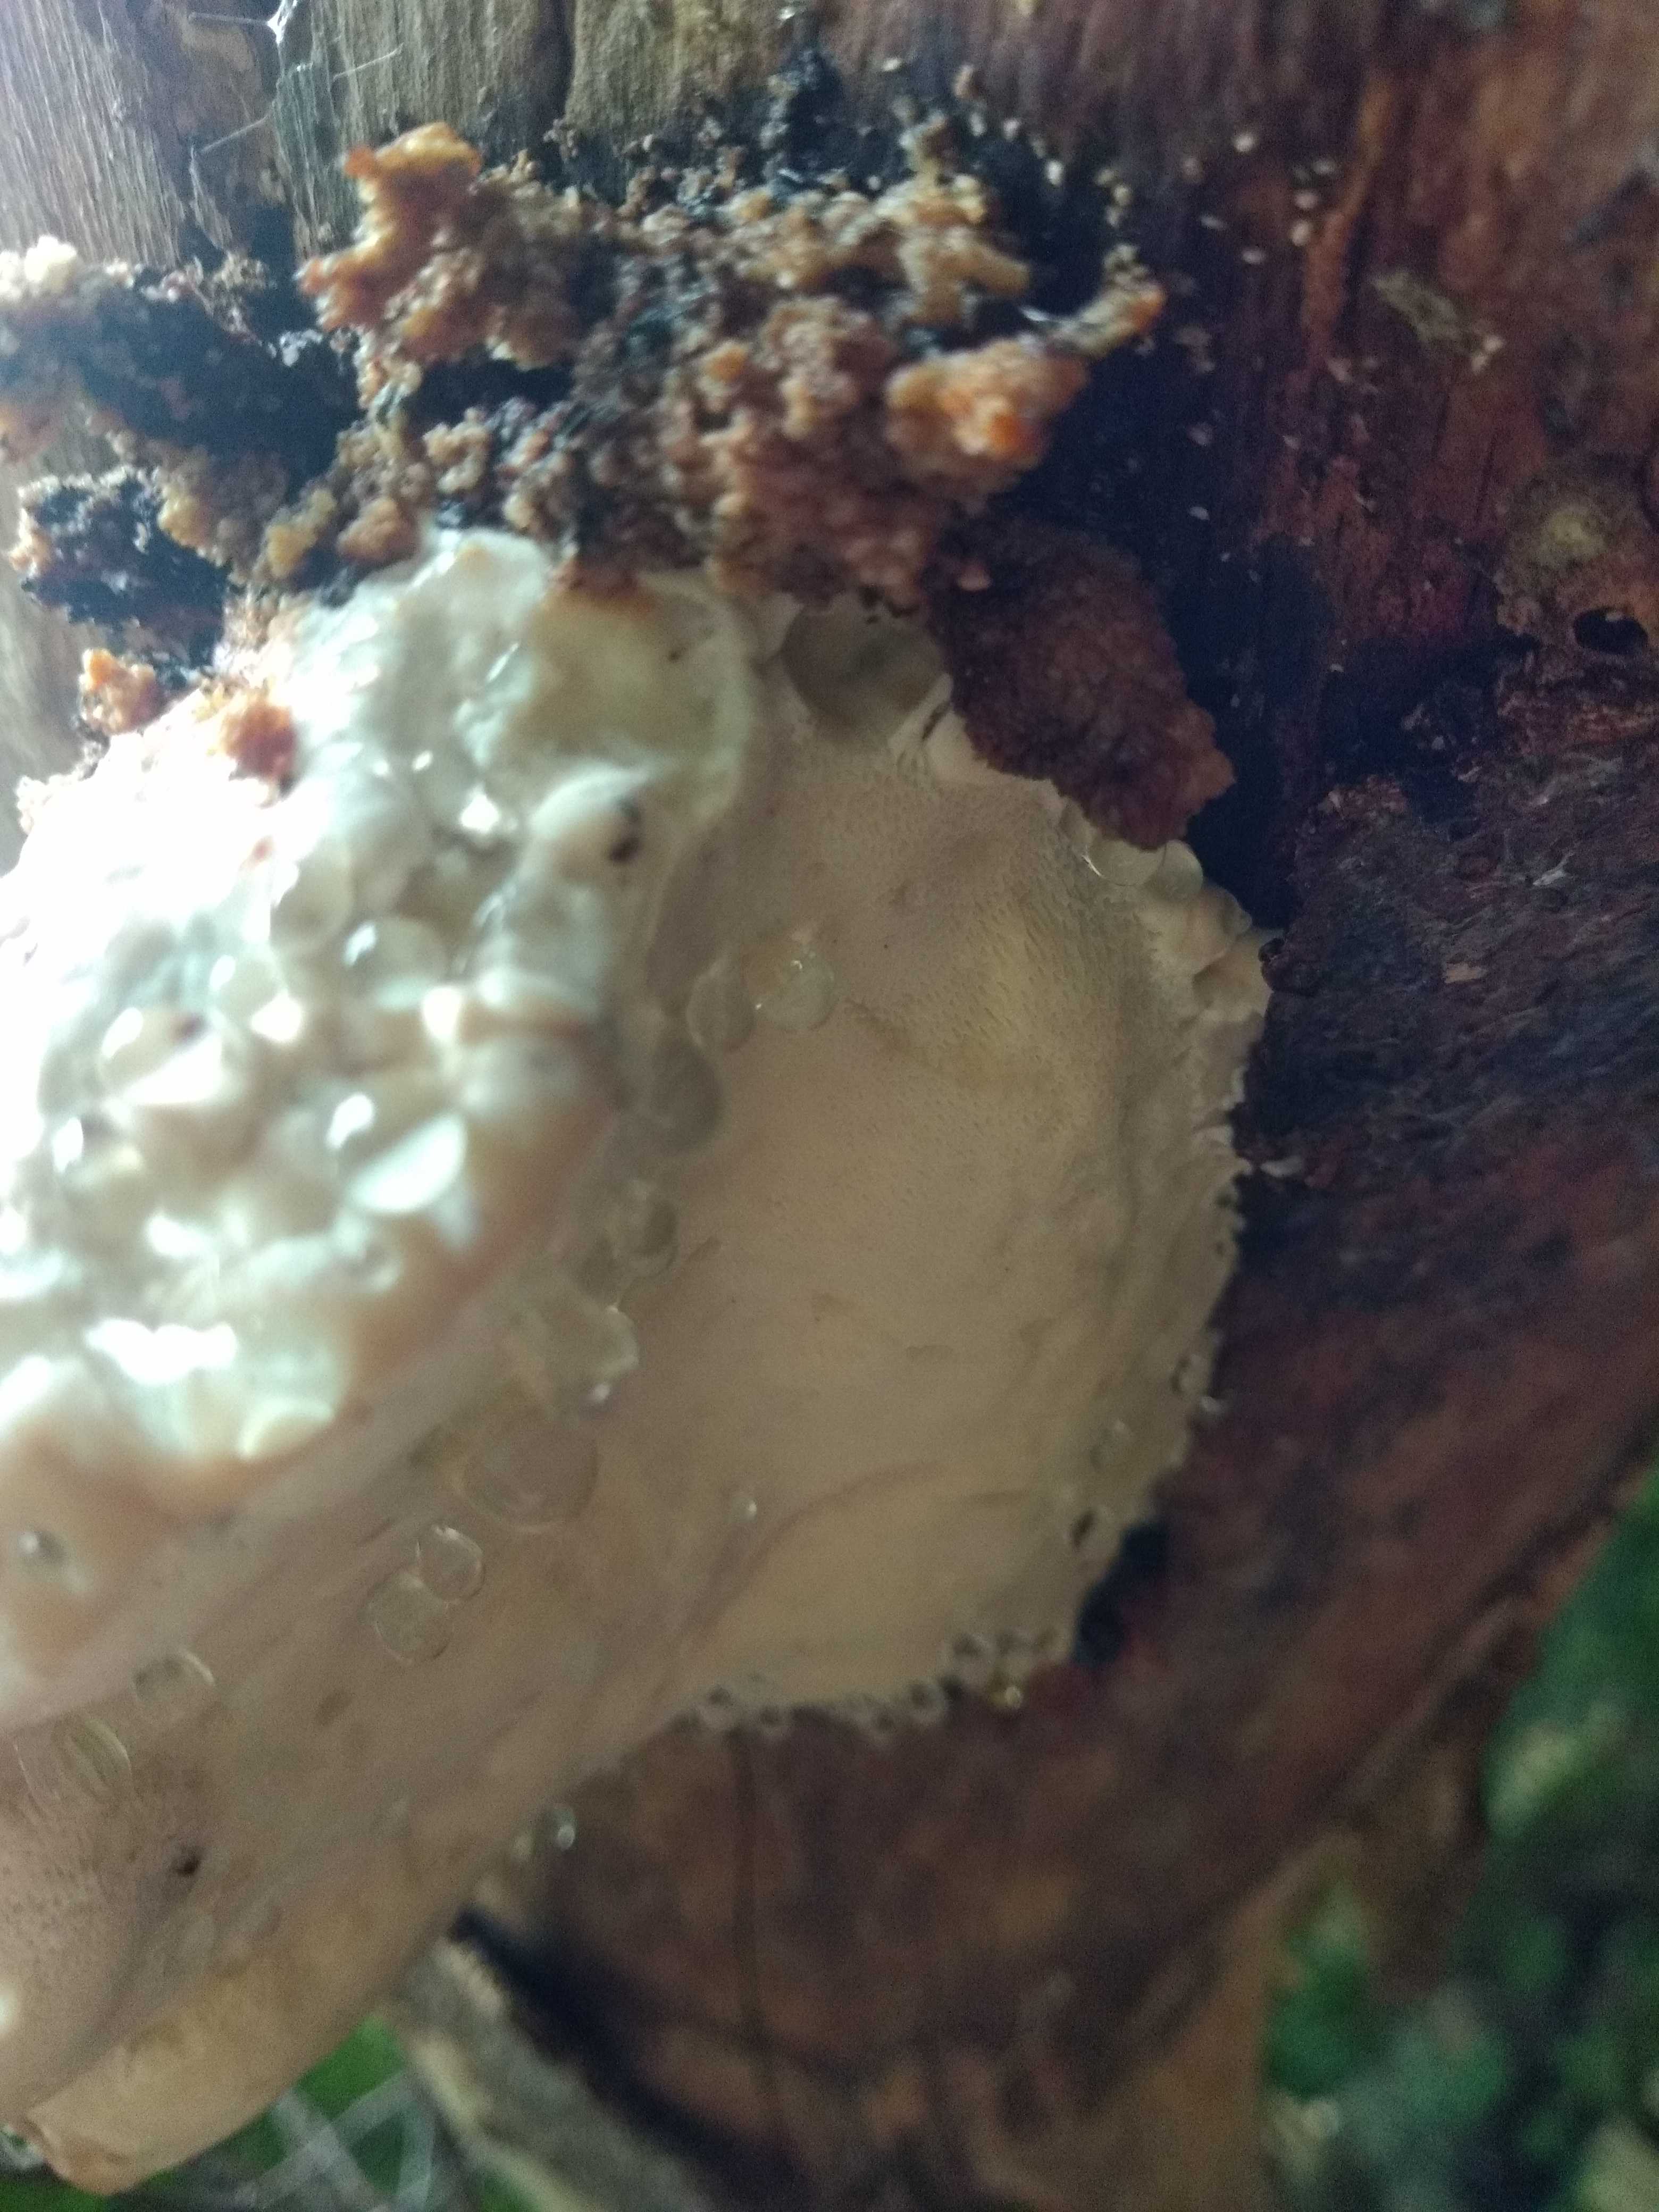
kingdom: Fungi
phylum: Basidiomycota
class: Agaricomycetes
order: Polyporales
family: Fomitopsidaceae
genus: Fomitopsis
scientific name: Fomitopsis pinicola
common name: randbæltet hovporesvamp
